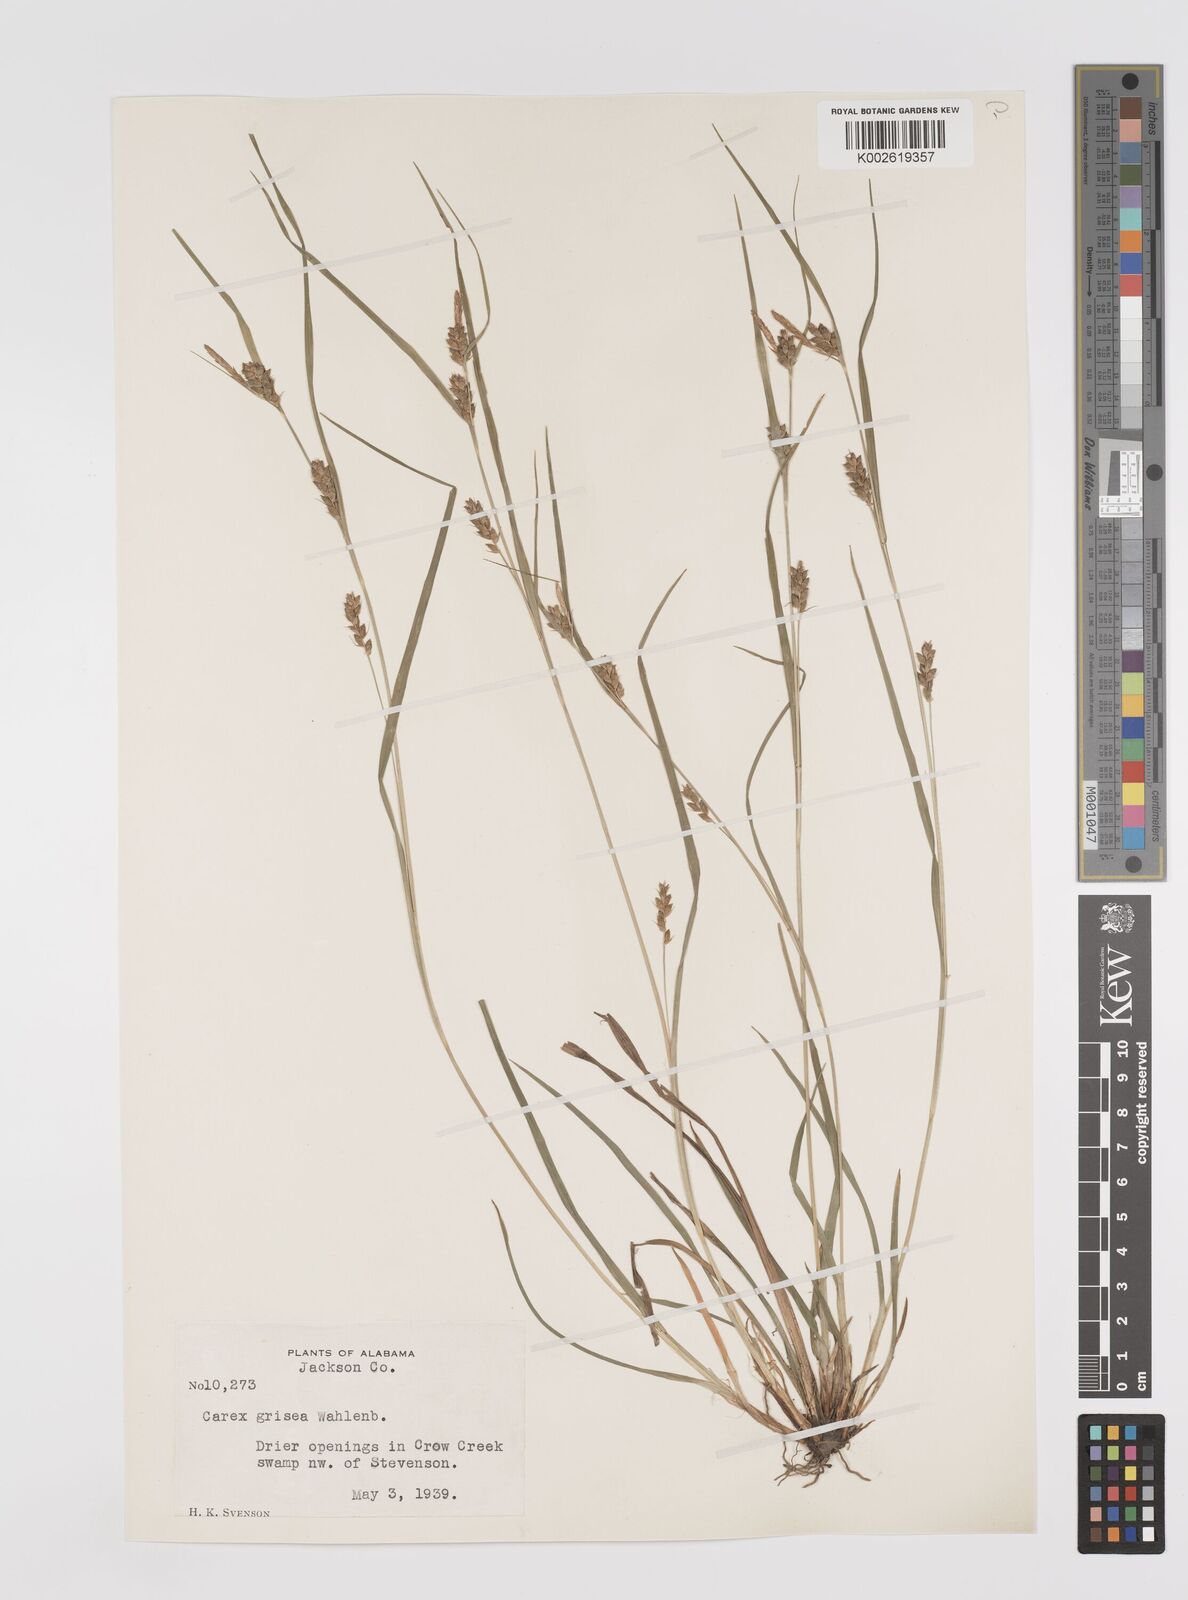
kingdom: Plantae
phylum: Tracheophyta
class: Liliopsida
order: Poales
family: Cyperaceae
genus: Carex
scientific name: Carex grisea
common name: Eastern narrow-leaved sedge
